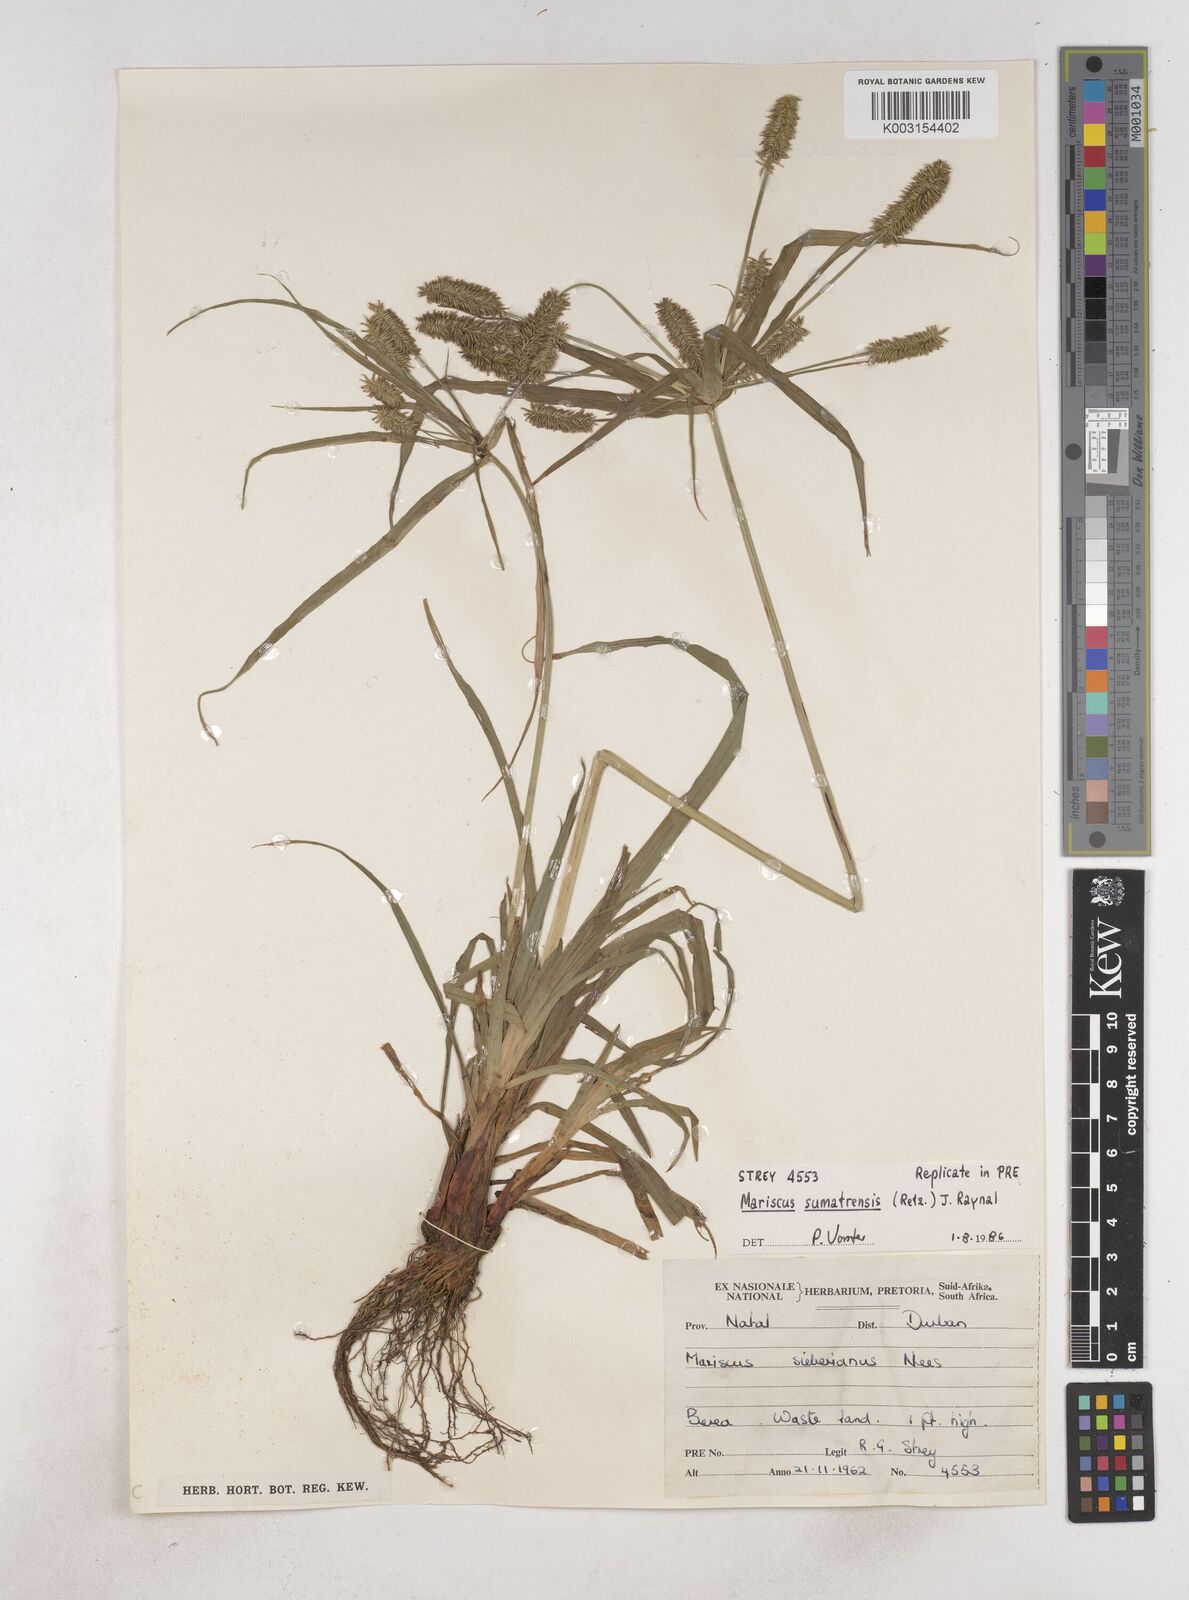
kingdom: Plantae
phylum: Tracheophyta
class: Liliopsida
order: Poales
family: Cyperaceae
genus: Cyperus
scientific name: Cyperus cyperoides
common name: Pacific island flat sedge
